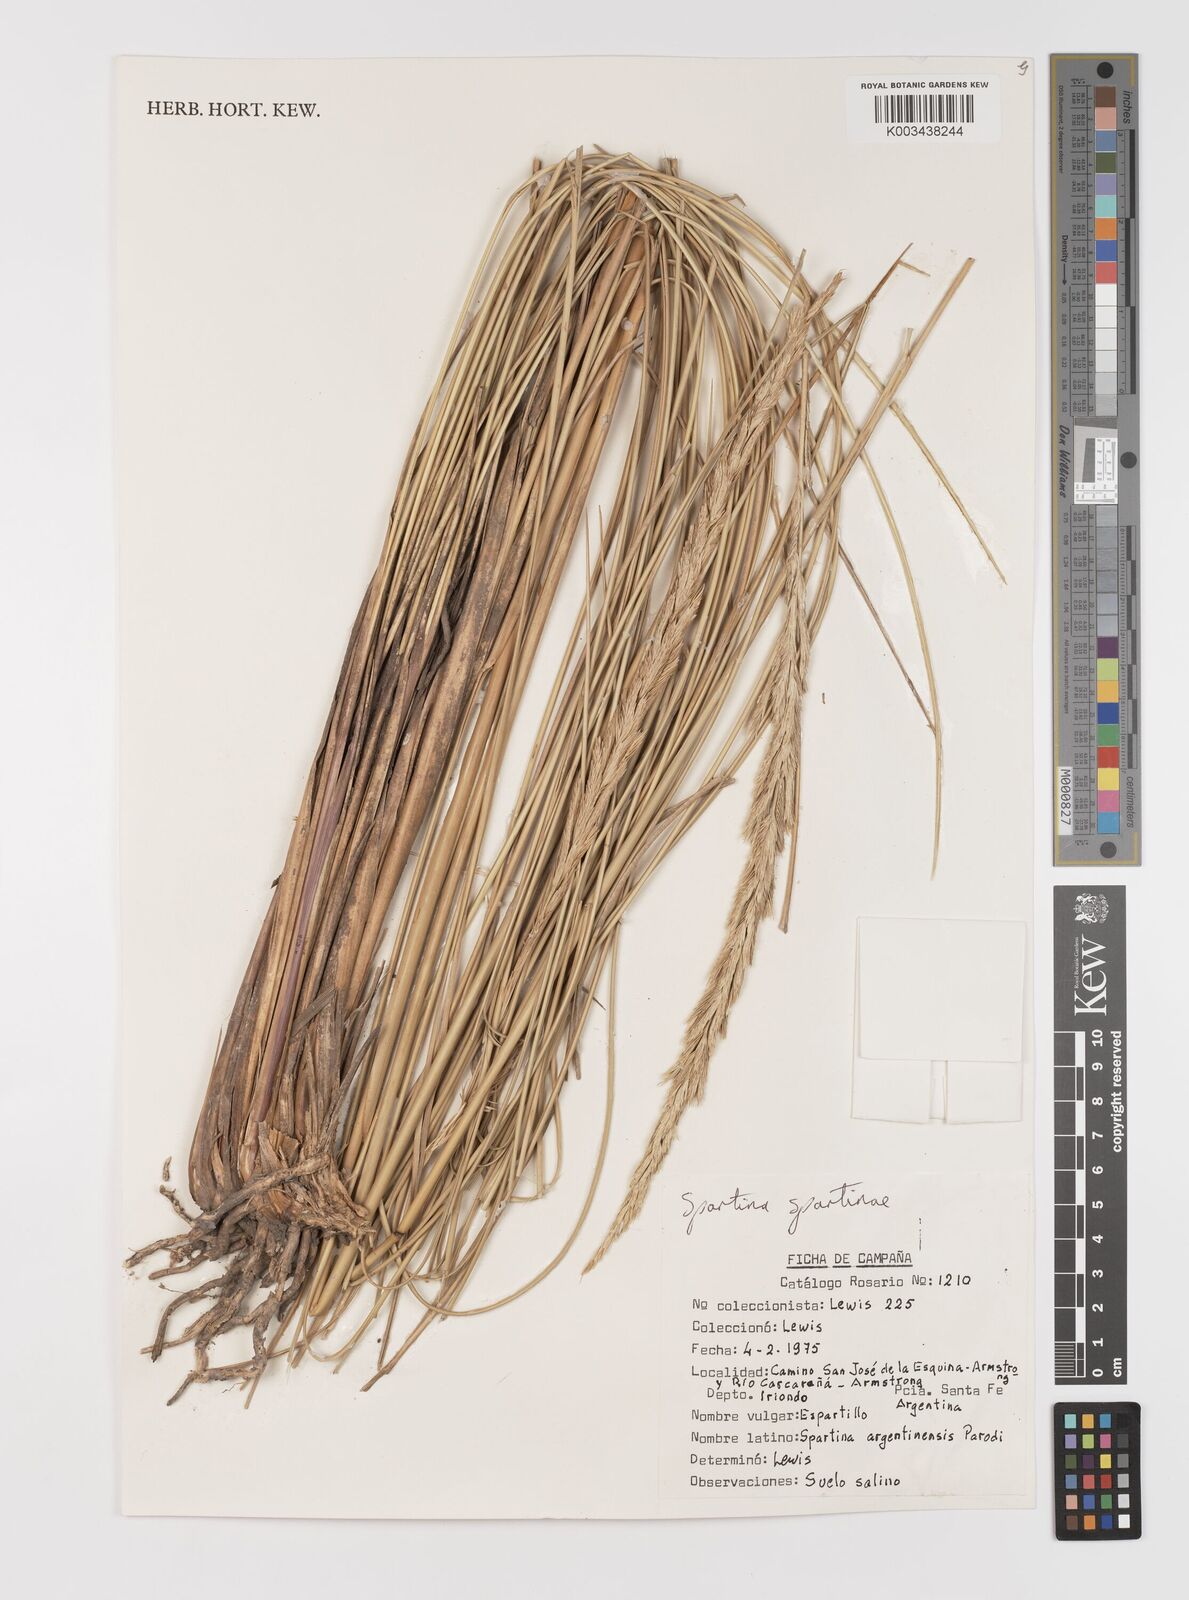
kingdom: Plantae
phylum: Tracheophyta
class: Liliopsida
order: Poales
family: Poaceae
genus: Sporobolus
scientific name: Sporobolus spartinae
